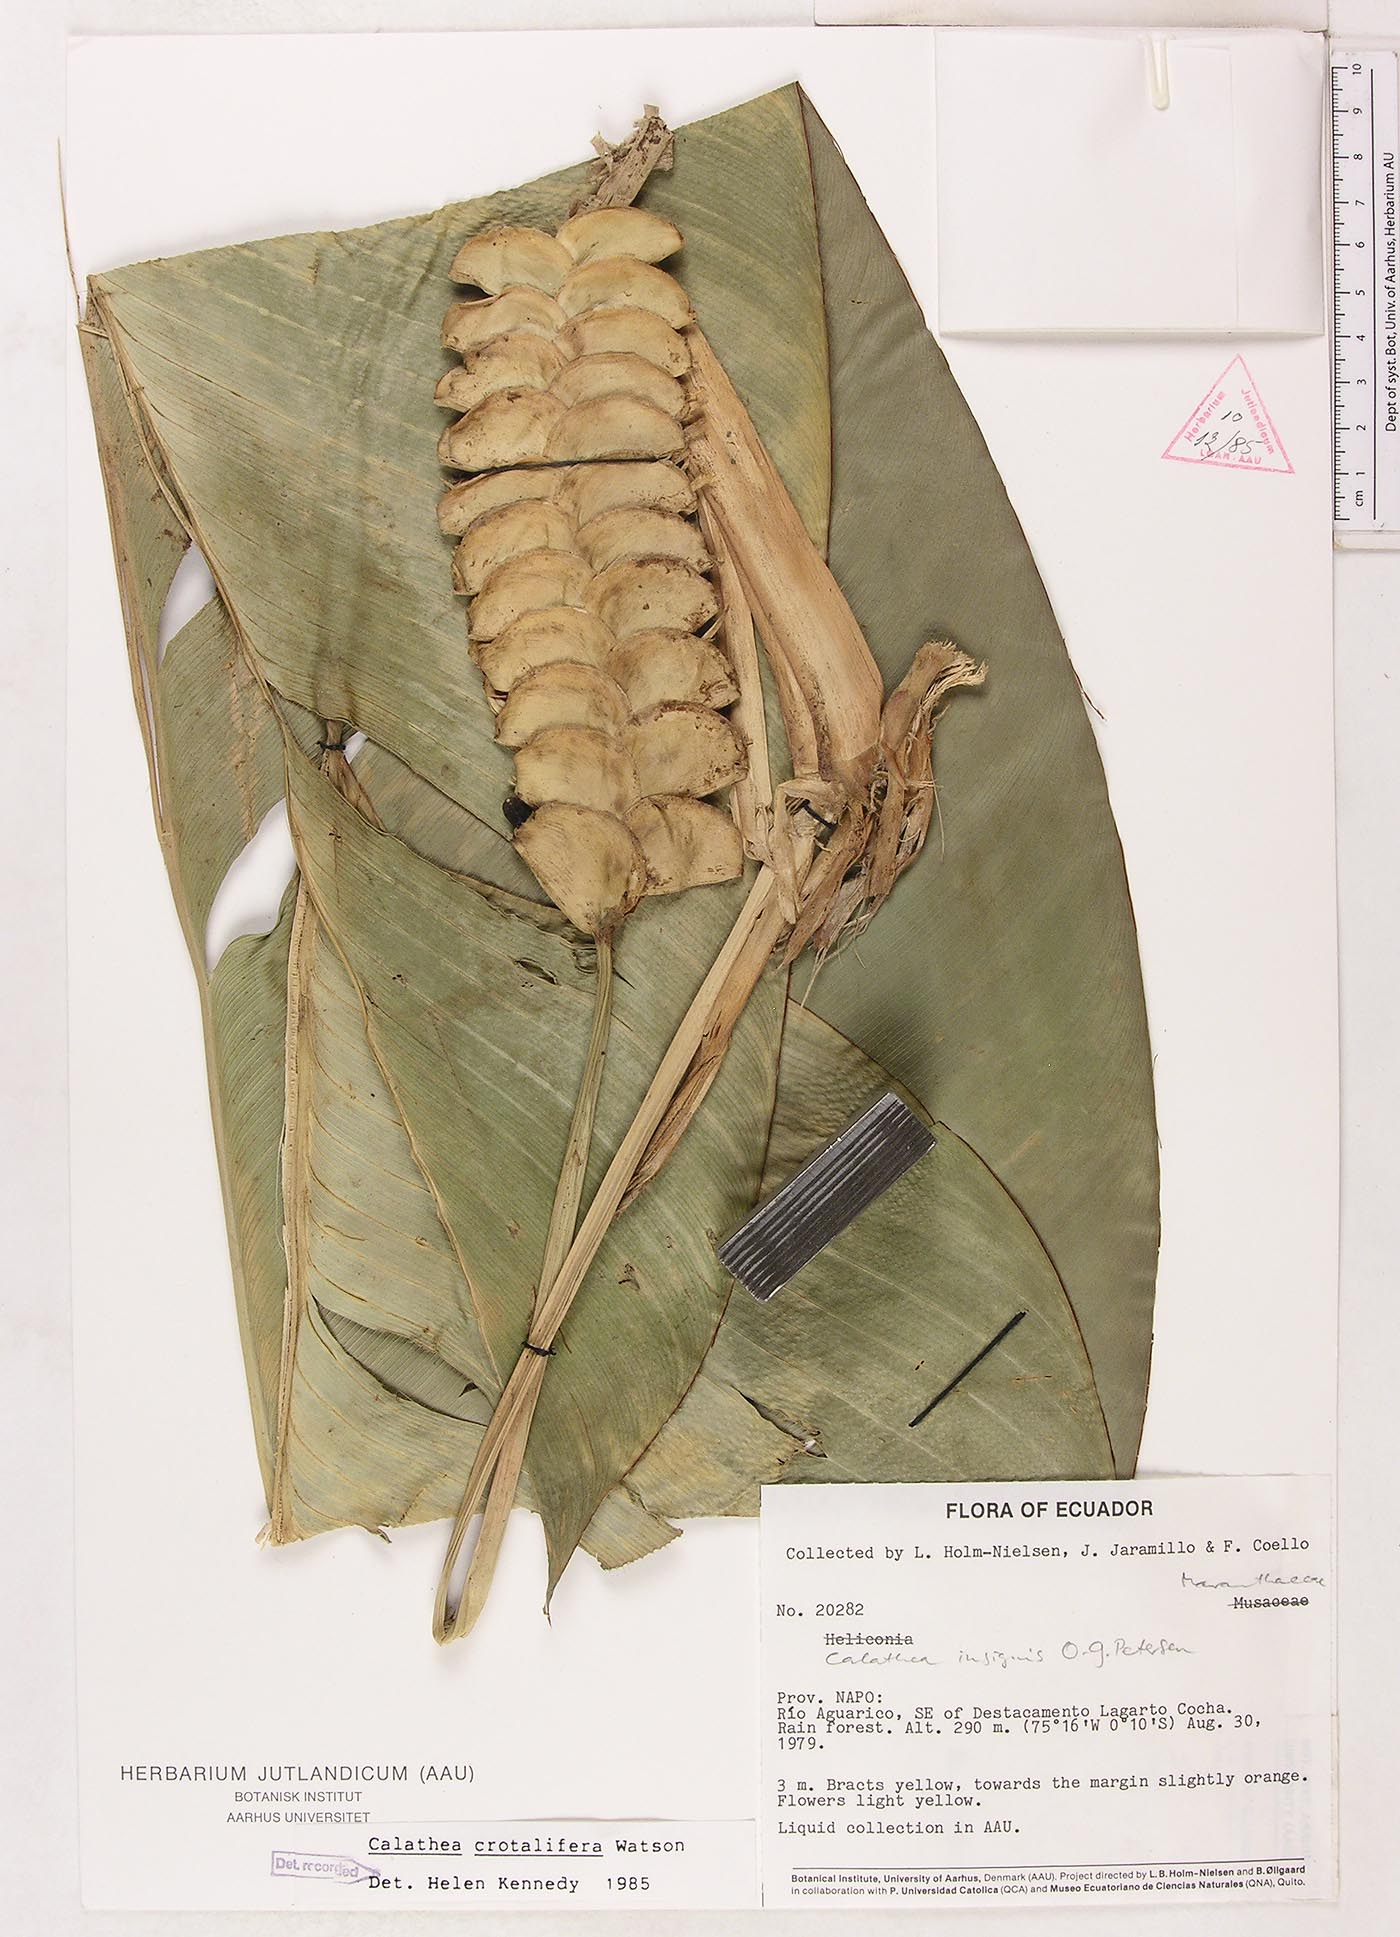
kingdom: Plantae
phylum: Tracheophyta
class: Liliopsida
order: Zingiberales
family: Marantaceae
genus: Calathea
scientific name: Calathea crotalifera
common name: Rattlesnake plant
